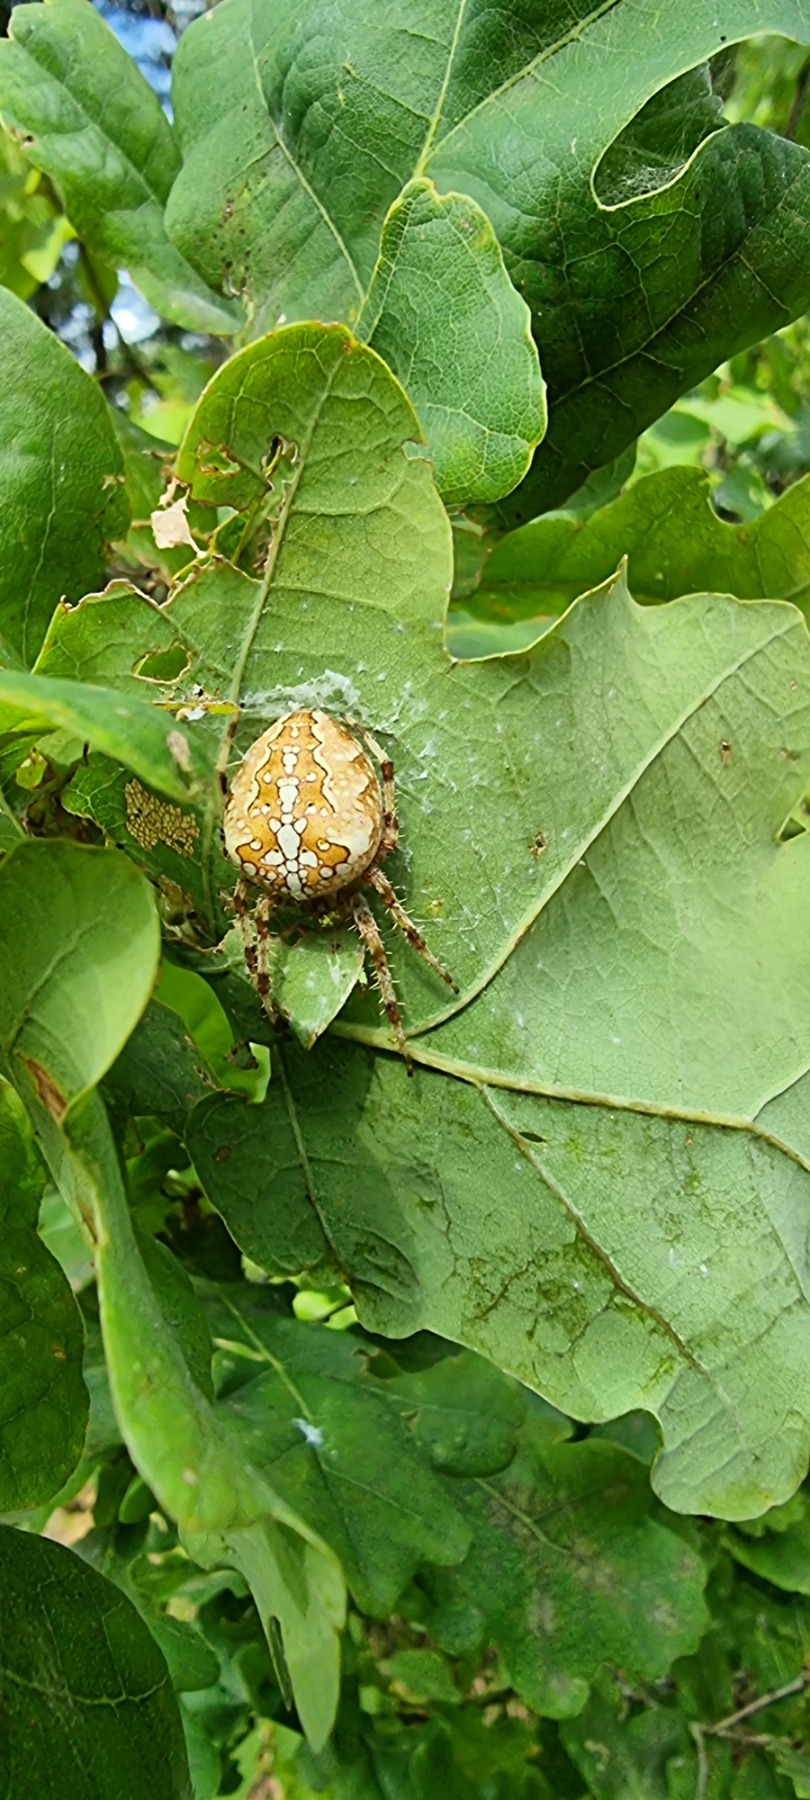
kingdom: Animalia
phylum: Arthropoda
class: Arachnida
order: Araneae
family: Araneidae
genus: Araneus
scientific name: Araneus diadematus
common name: Korsedderkop
